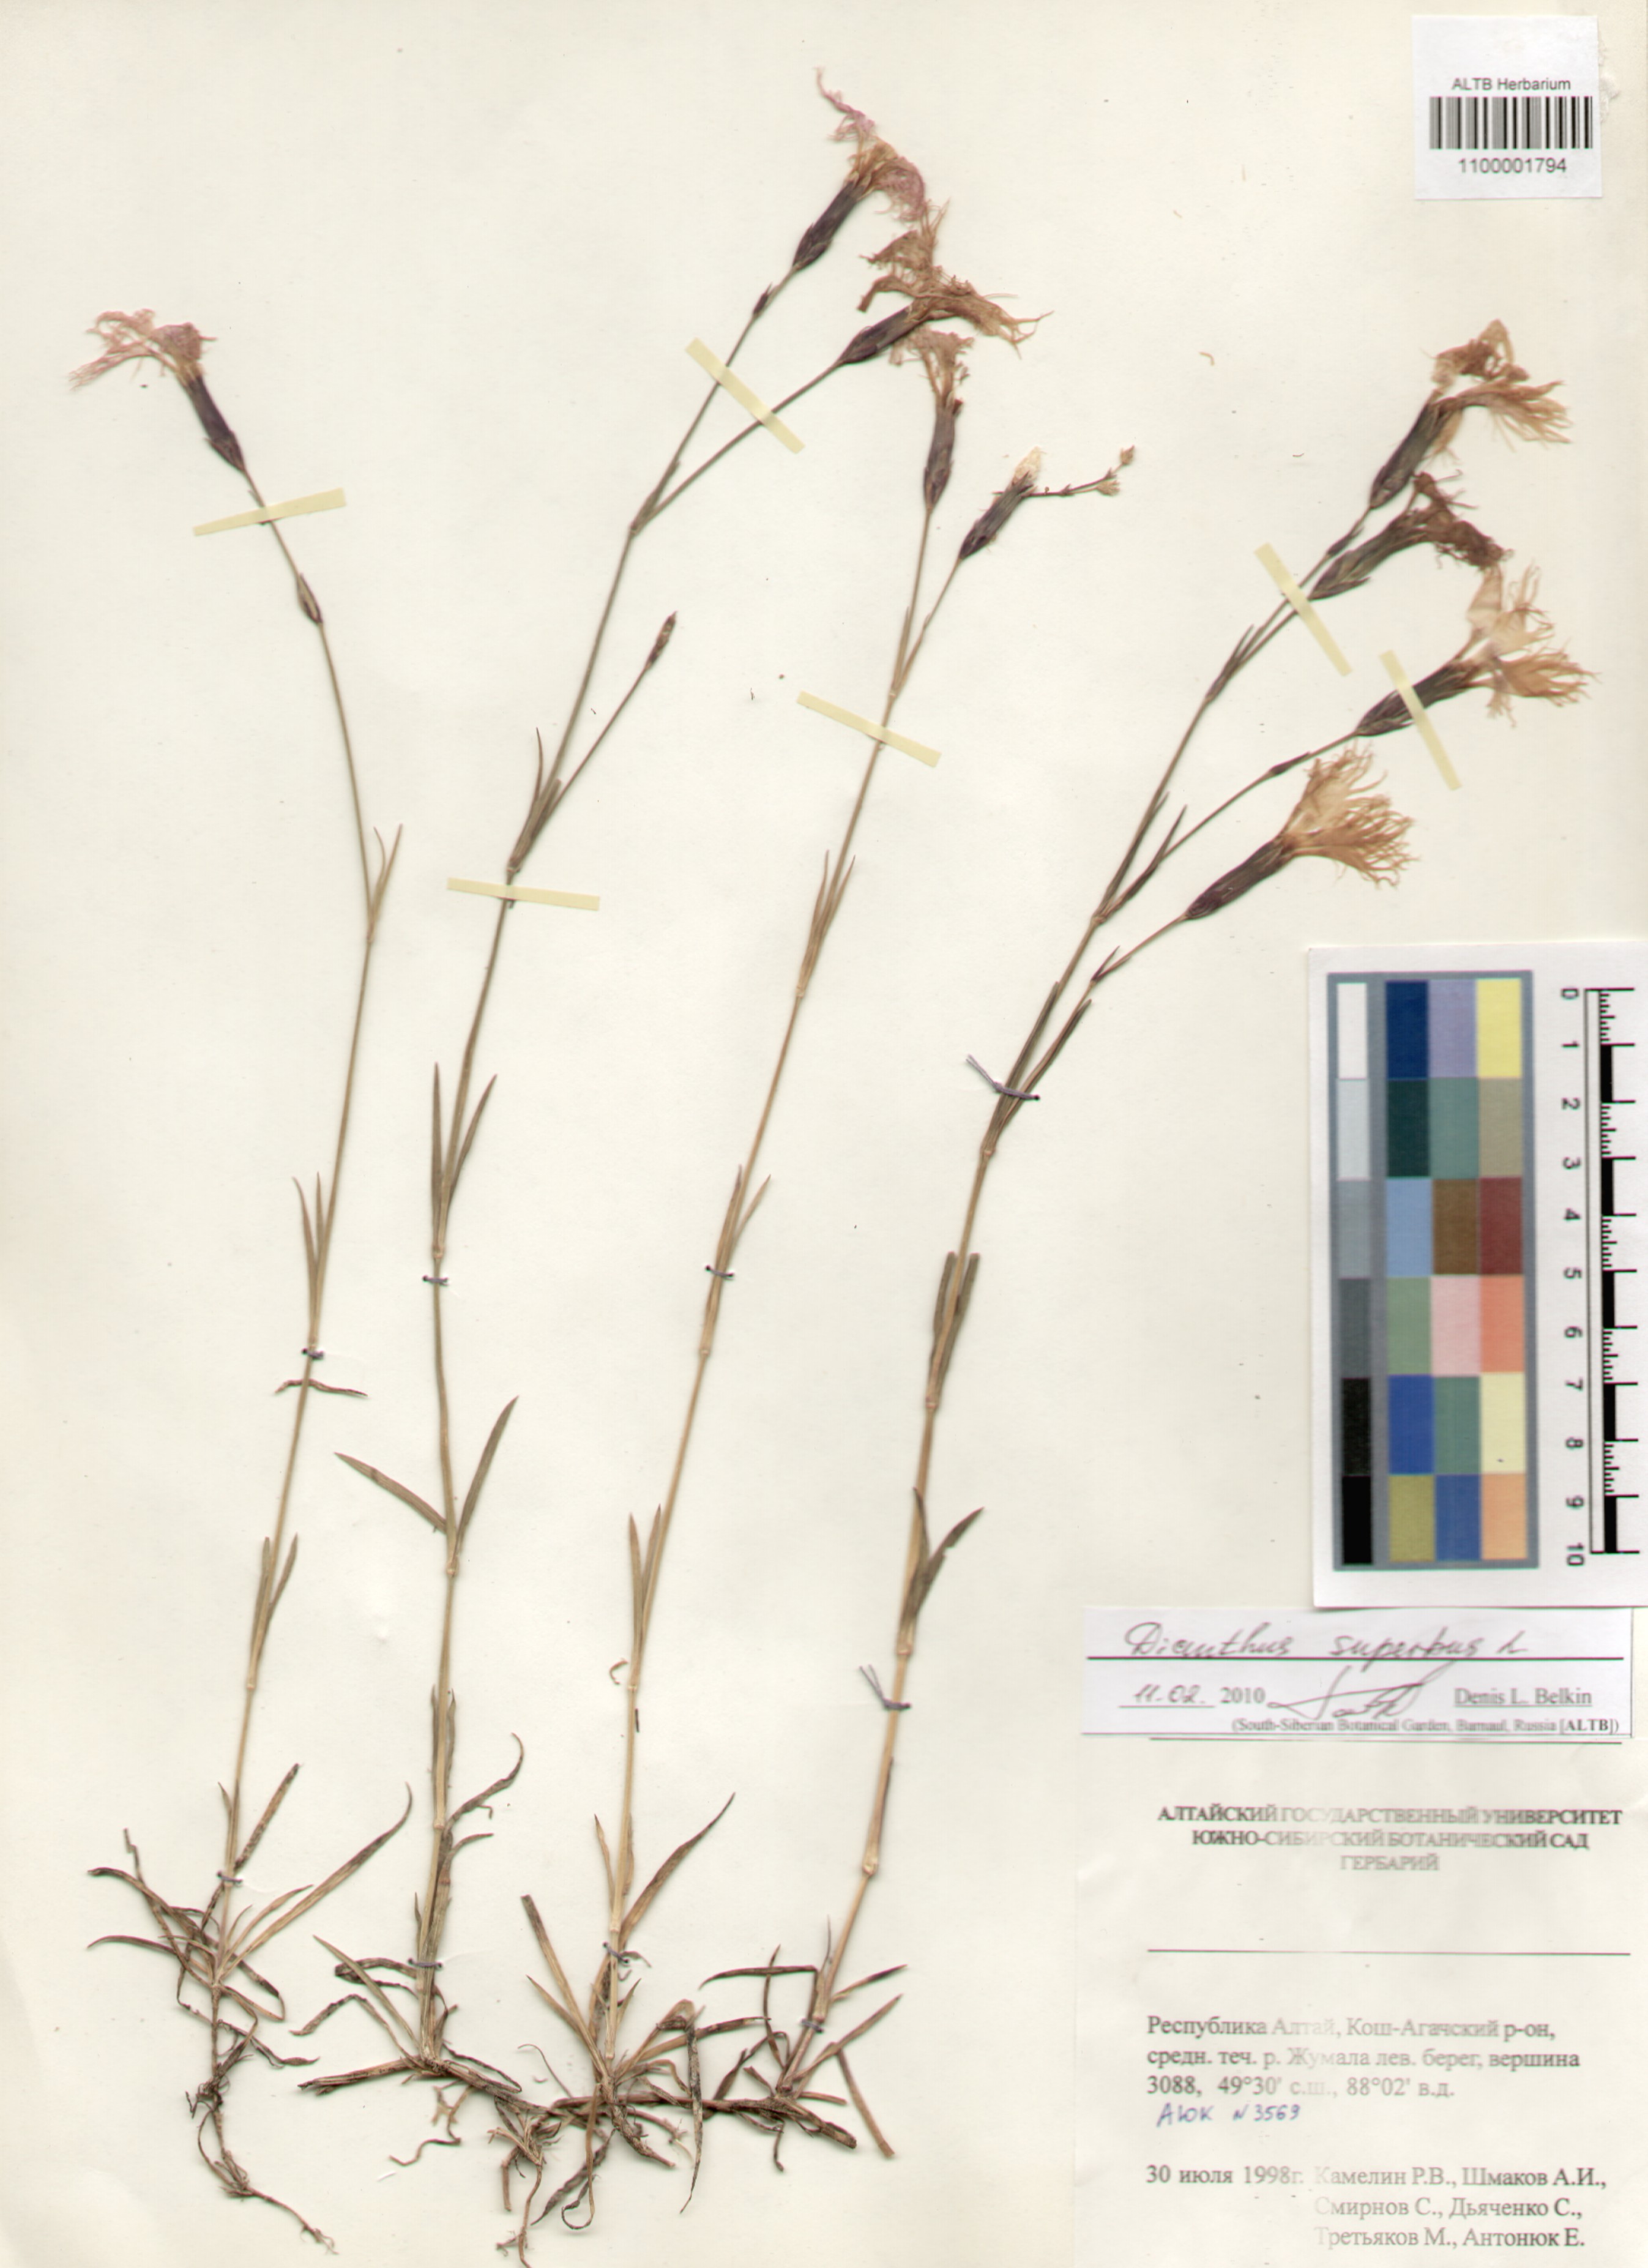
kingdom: Plantae
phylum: Tracheophyta
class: Magnoliopsida
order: Caryophyllales
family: Caryophyllaceae
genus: Dianthus
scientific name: Dianthus superbus
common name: Fringed pink
